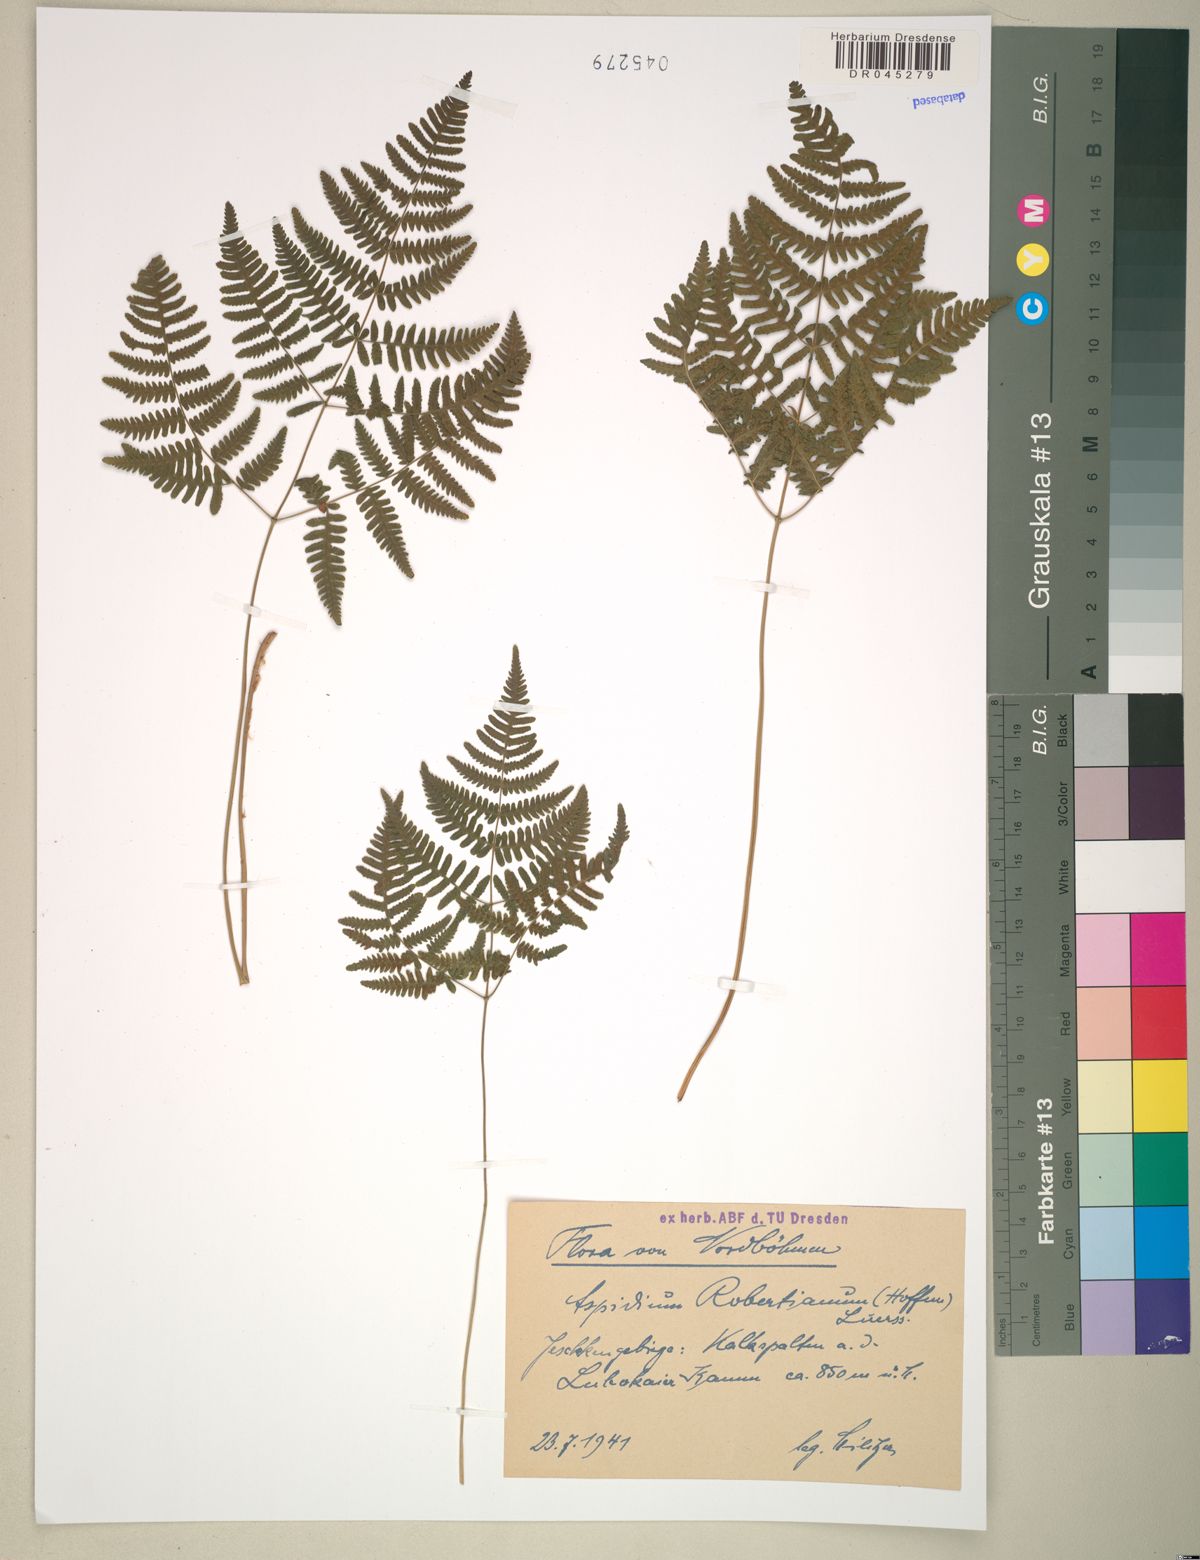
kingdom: Plantae
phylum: Tracheophyta
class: Polypodiopsida
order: Polypodiales
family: Cystopteridaceae
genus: Gymnocarpium
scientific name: Gymnocarpium robertianum
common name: Limestone fern
